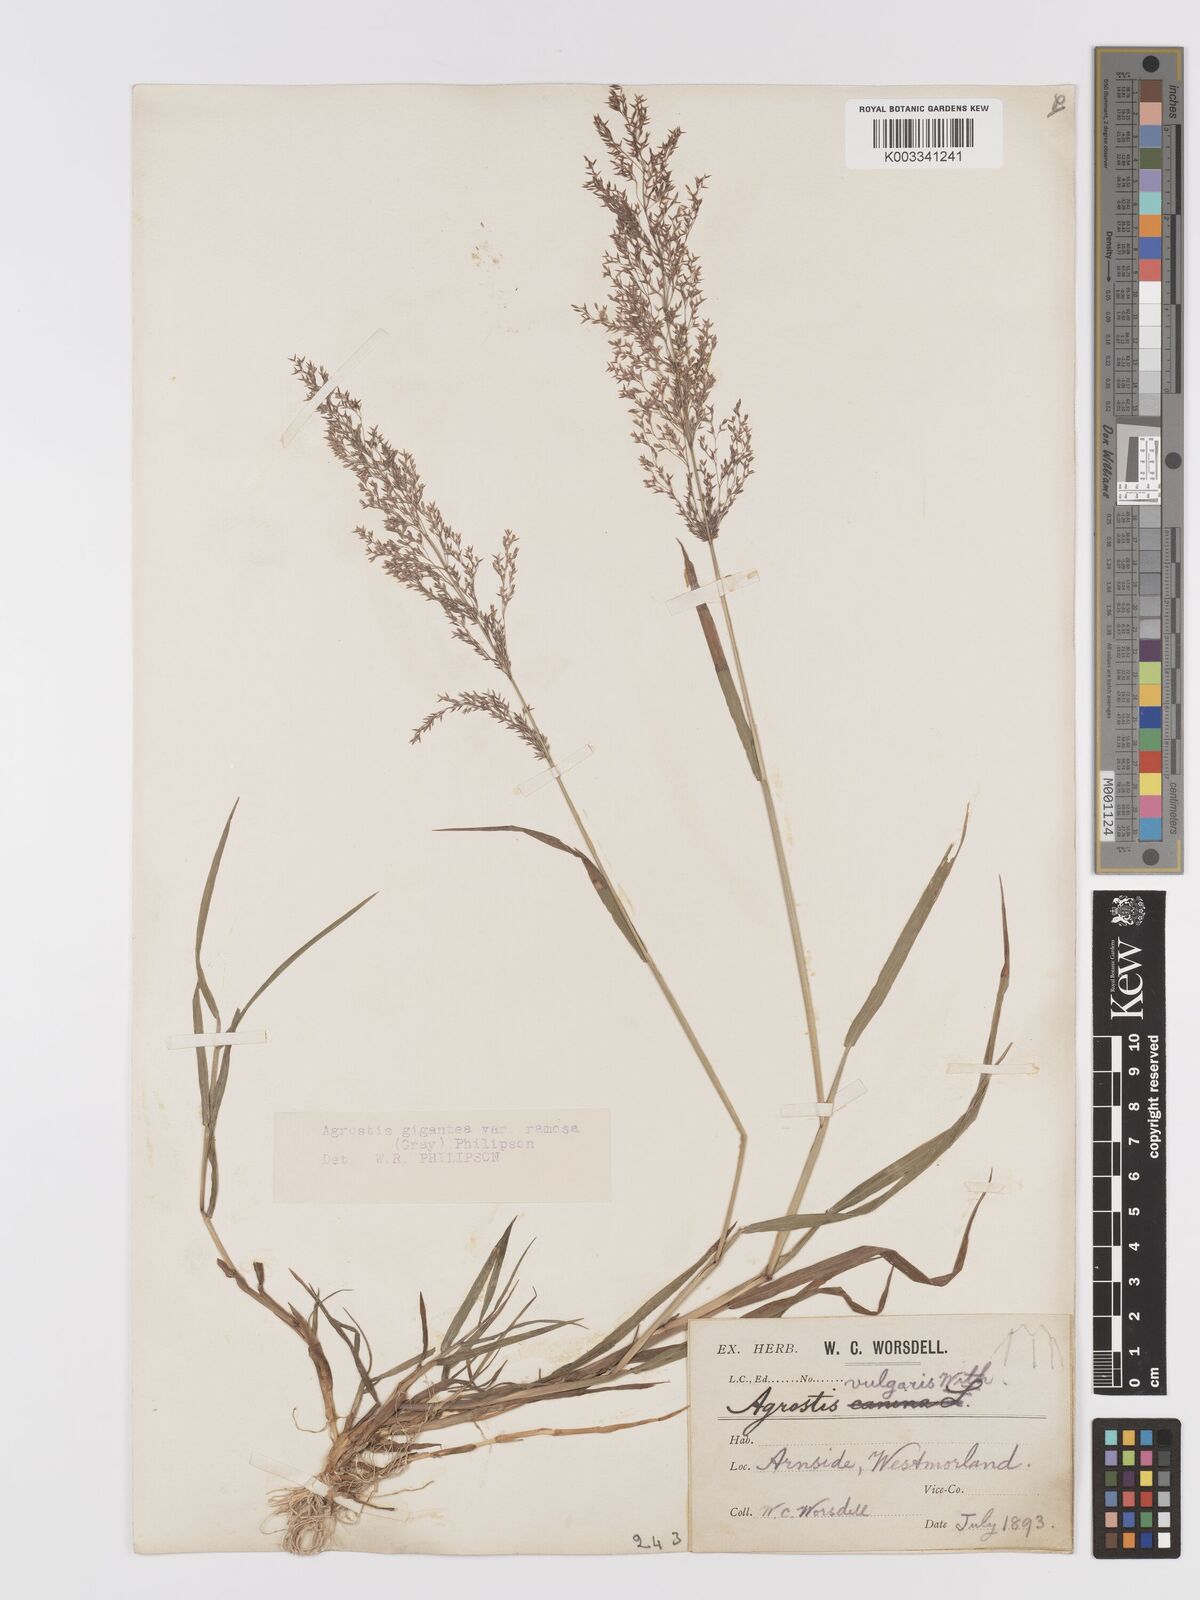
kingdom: Plantae
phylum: Tracheophyta
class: Liliopsida
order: Poales
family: Poaceae
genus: Agrostis
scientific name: Agrostis gigantea
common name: Black bent
